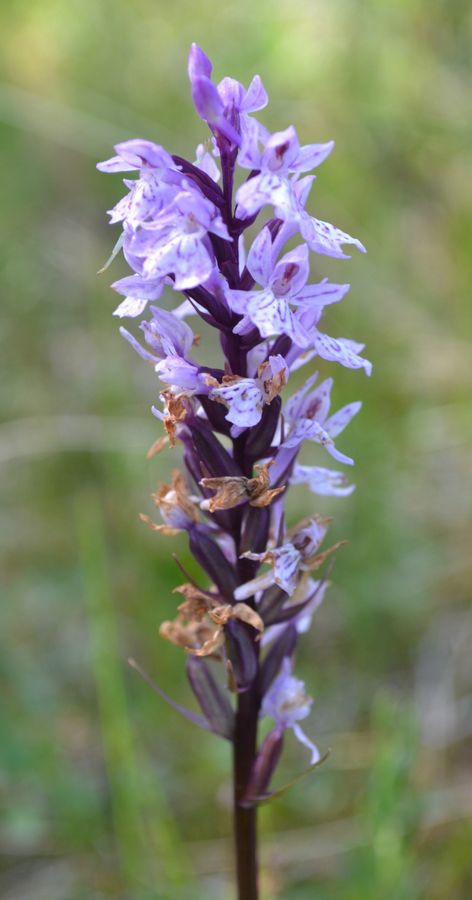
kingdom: Plantae
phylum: Tracheophyta
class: Liliopsida
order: Asparagales
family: Orchidaceae
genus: Dactylorhiza
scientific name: Dactylorhiza maculata
